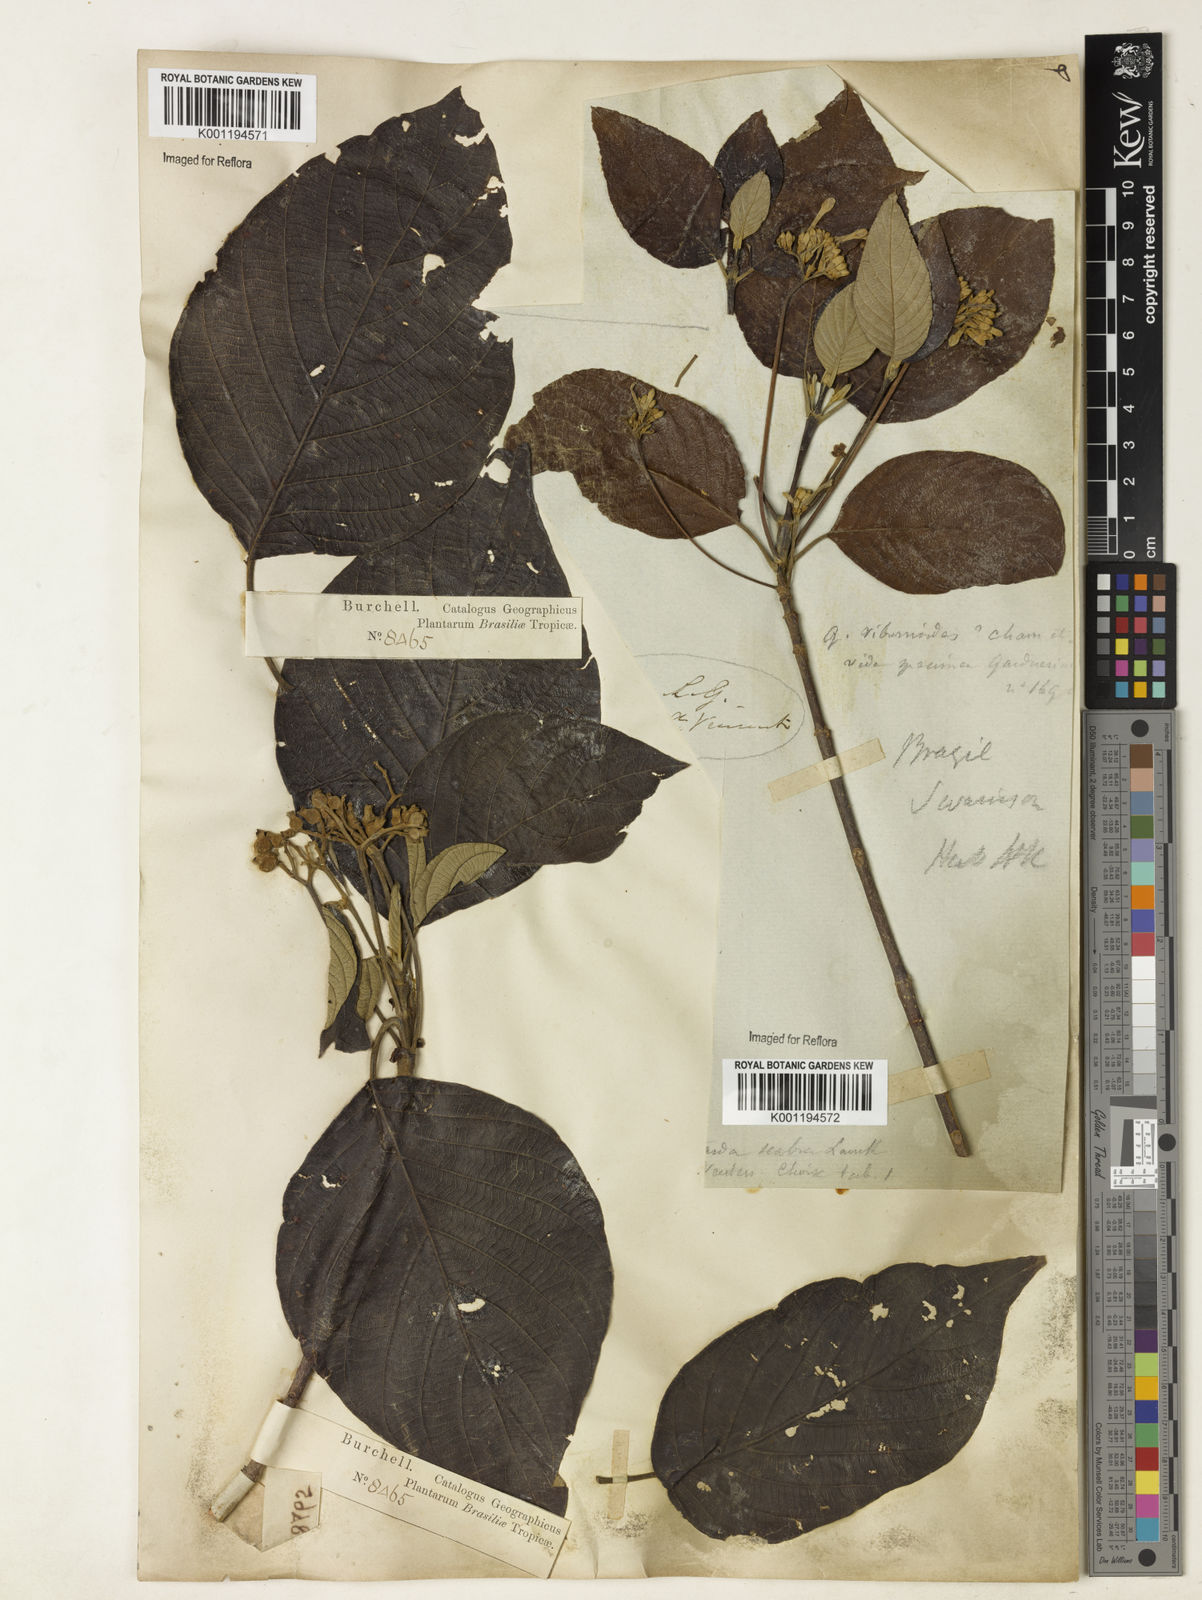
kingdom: Plantae
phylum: Tracheophyta
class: Magnoliopsida
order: Gentianales
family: Rubiaceae
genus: Guettarda
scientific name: Guettarda viburnoides
